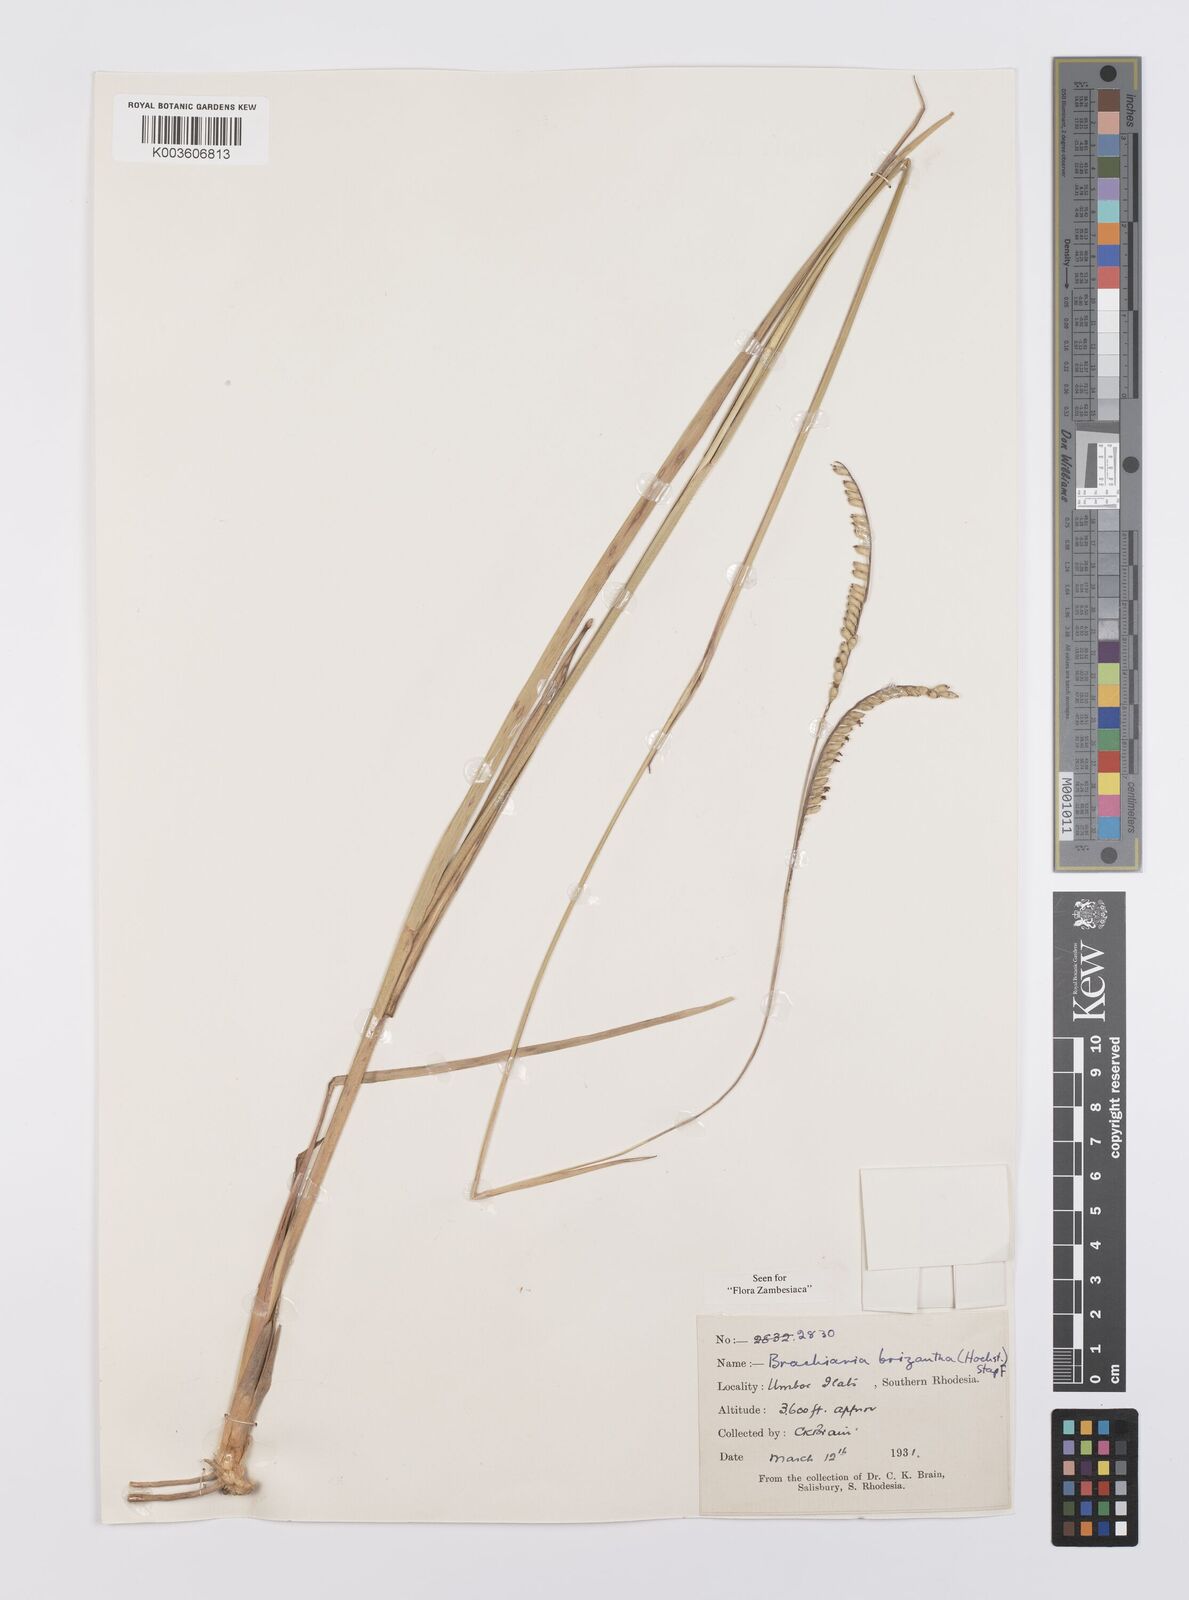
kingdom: Plantae
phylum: Tracheophyta
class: Liliopsida
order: Poales
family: Poaceae
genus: Urochloa
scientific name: Urochloa brizantha
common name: Palisade signalgrass
